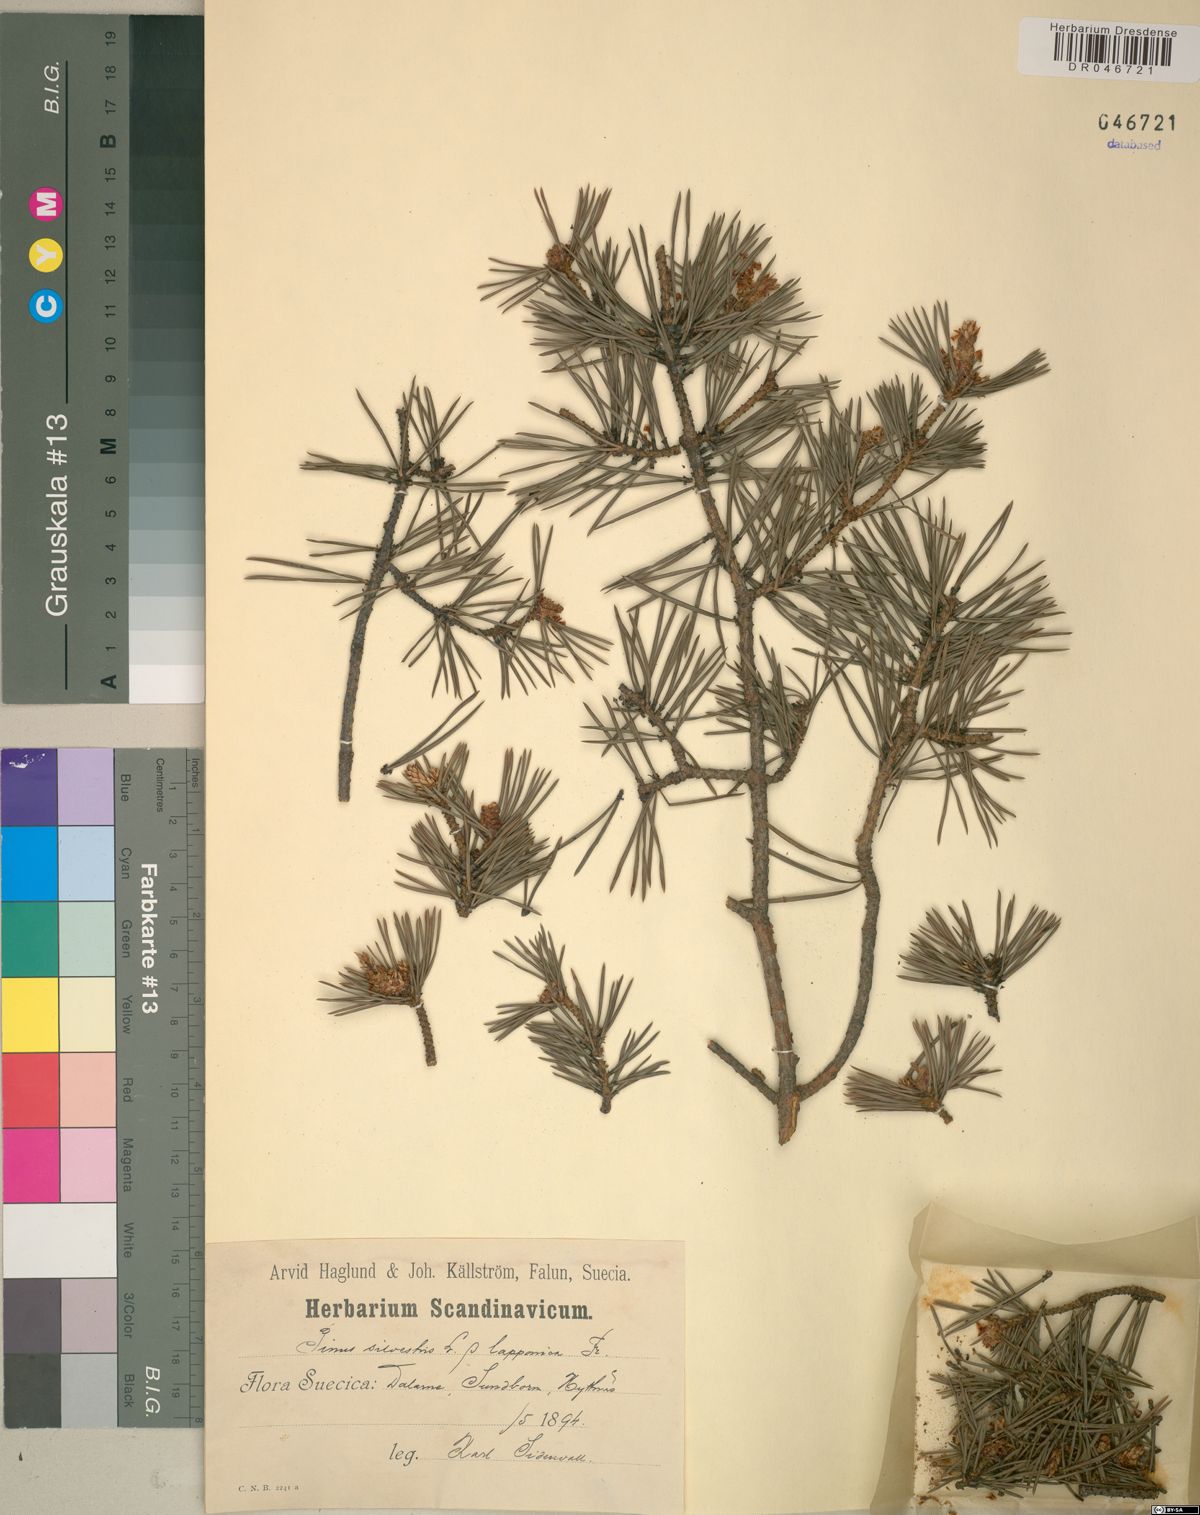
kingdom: Plantae
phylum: Tracheophyta
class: Pinopsida
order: Pinales
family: Pinaceae
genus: Pinus
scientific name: Pinus sylvestris
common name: Scots pine
